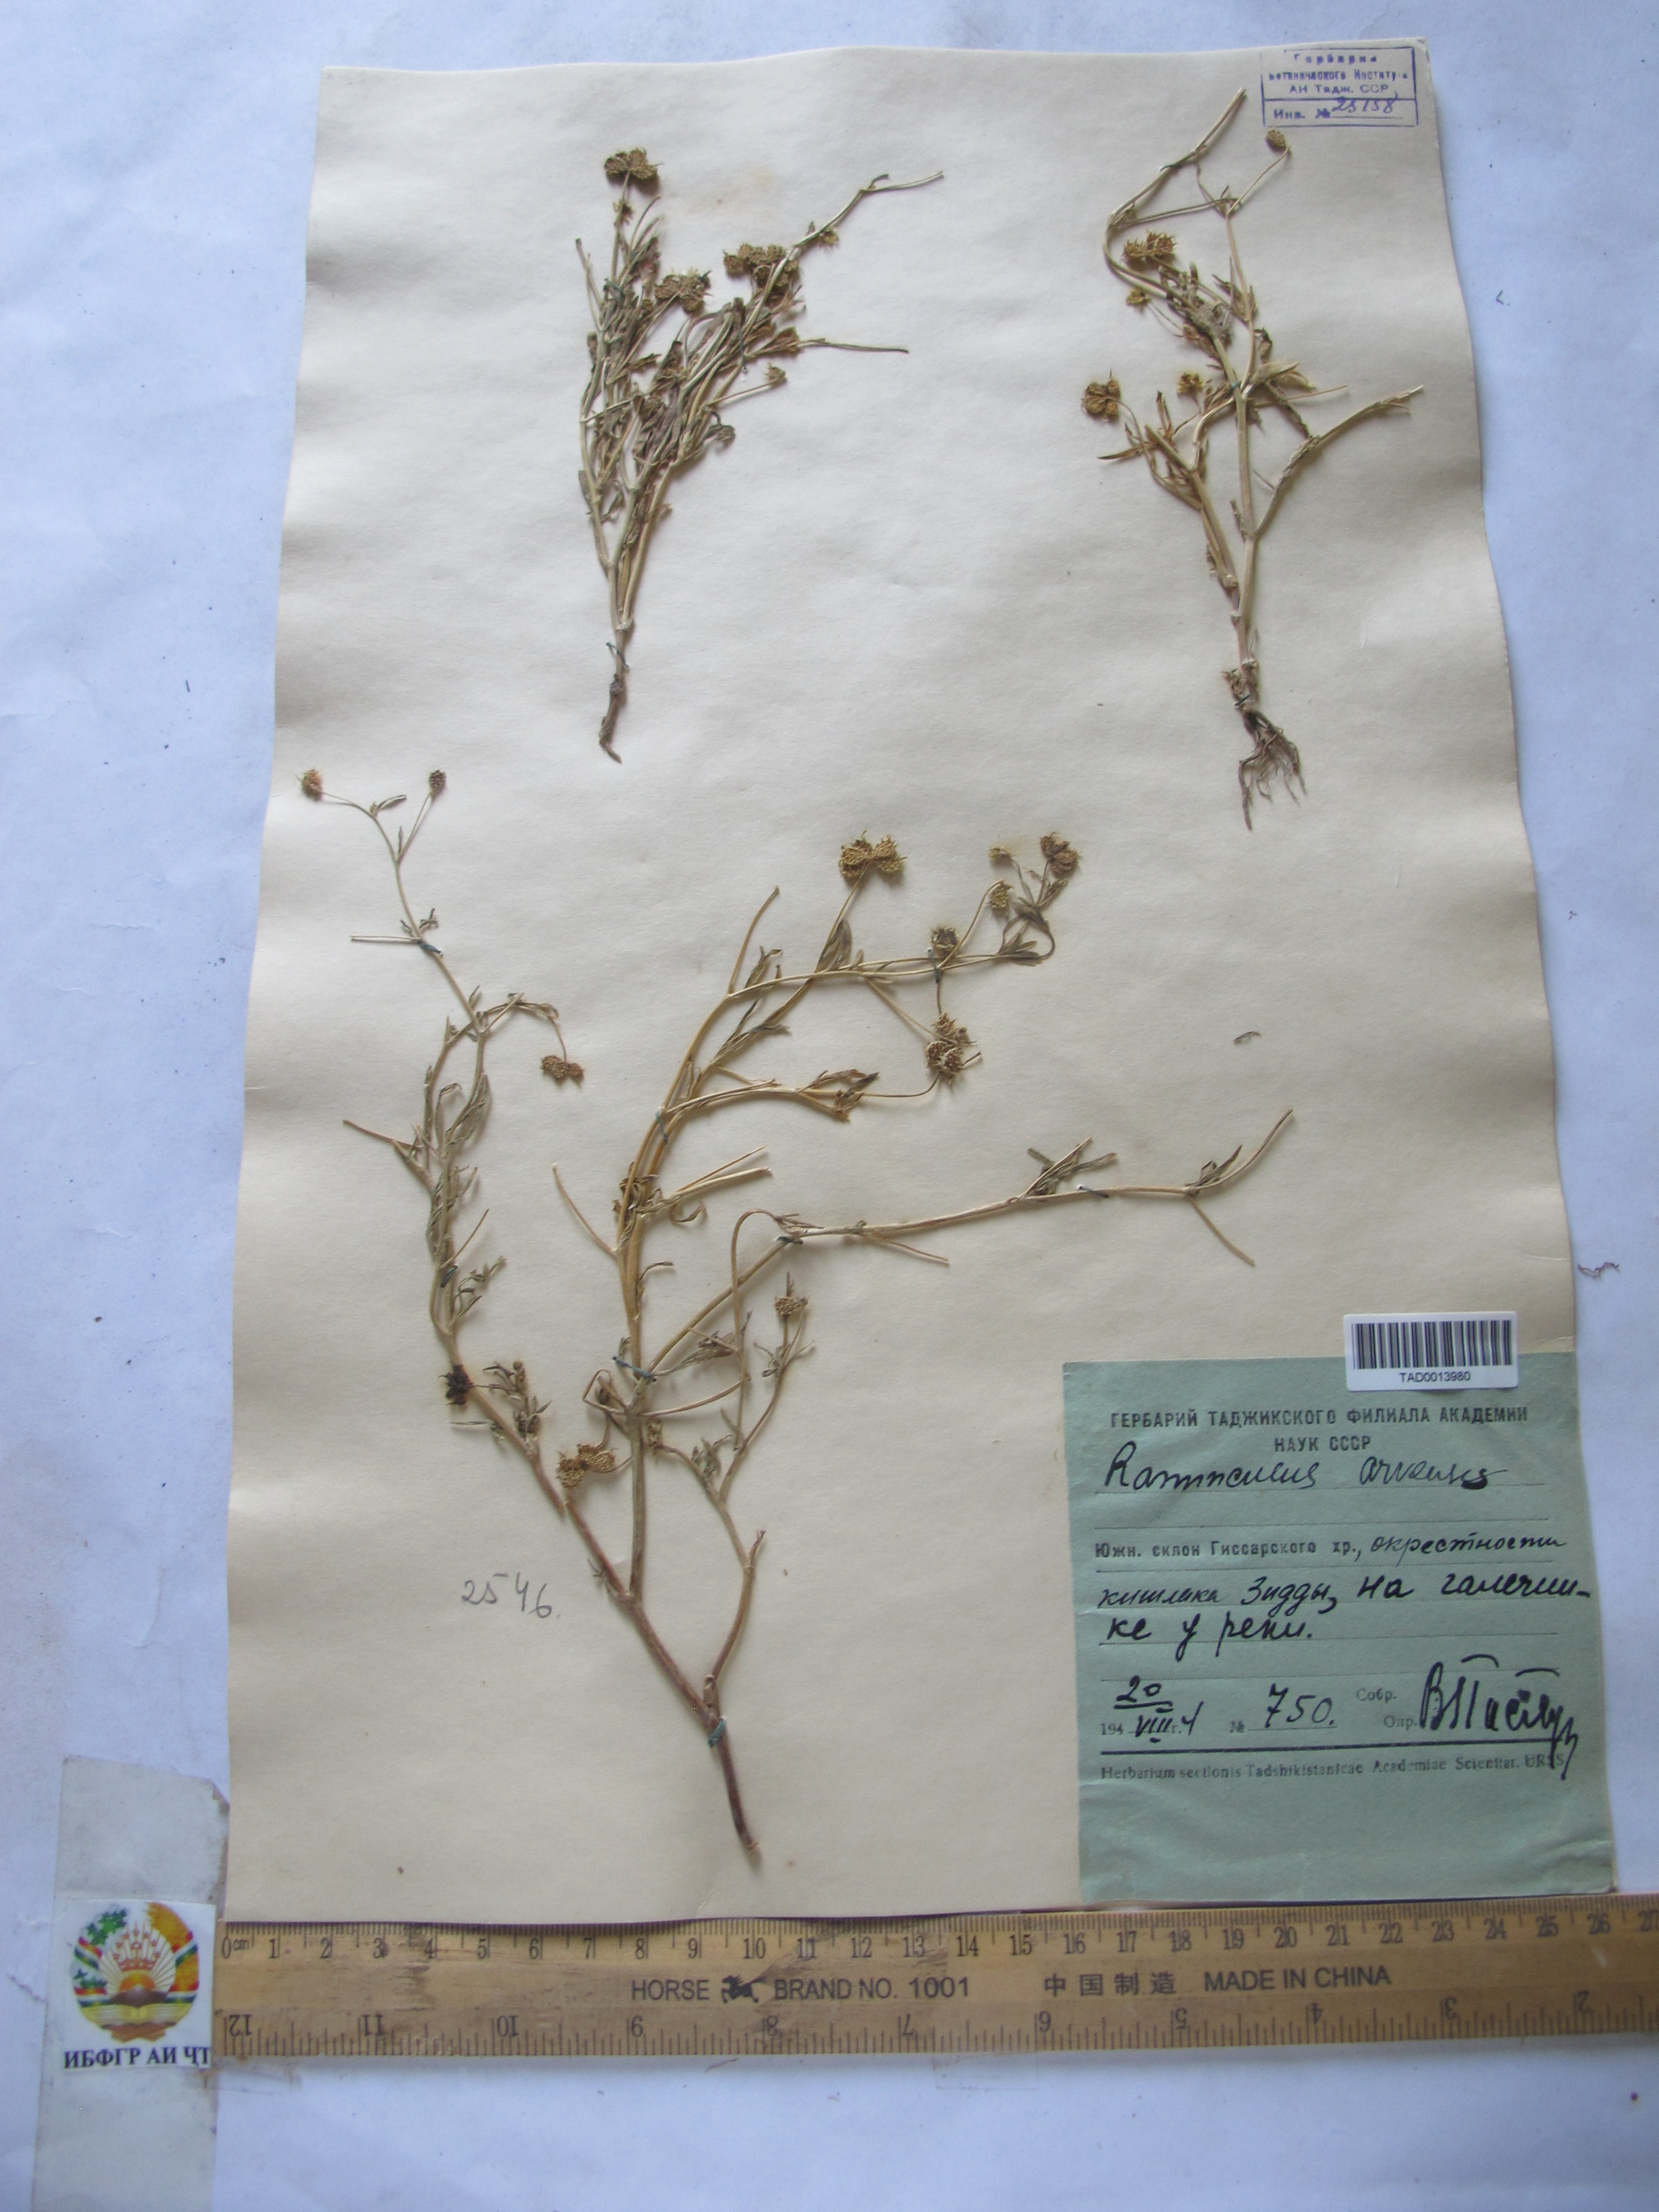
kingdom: Plantae
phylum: Tracheophyta
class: Magnoliopsida
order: Ranunculales
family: Ranunculaceae
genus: Ranunculus
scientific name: Ranunculus arvensis
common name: Corn buttercup
